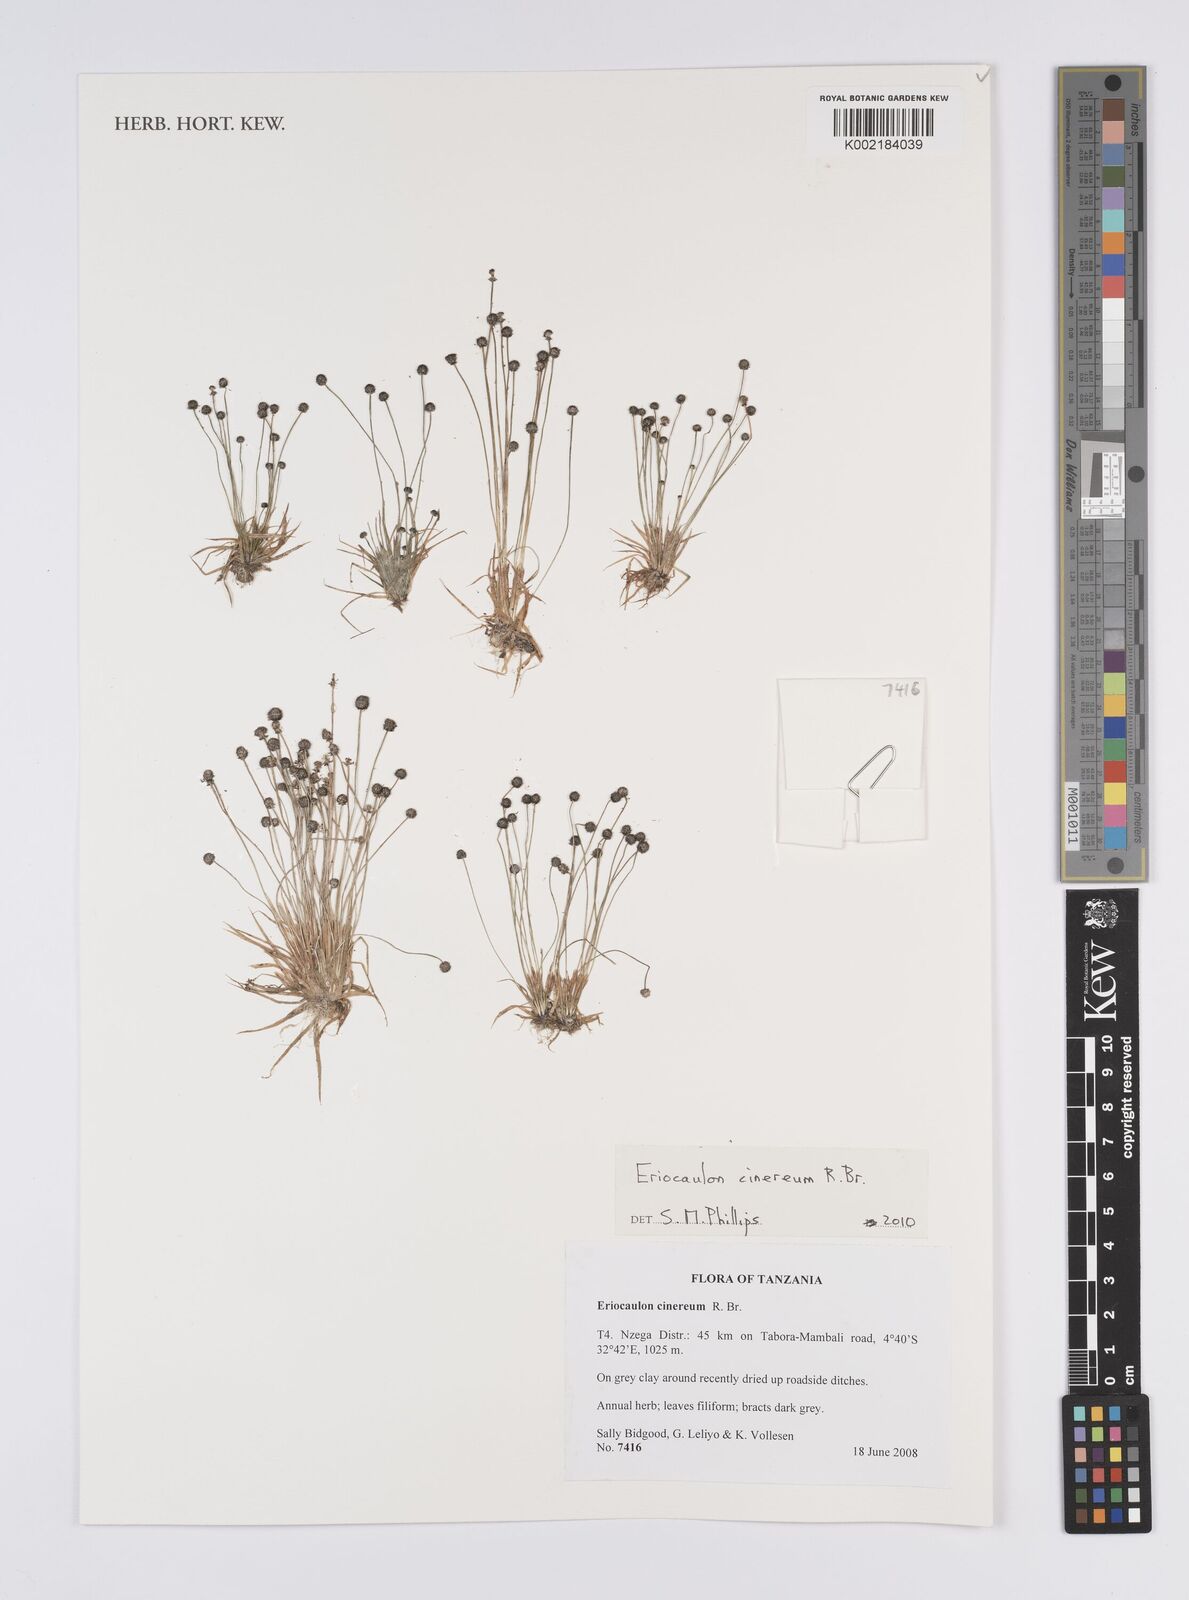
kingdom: Plantae
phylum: Tracheophyta
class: Liliopsida
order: Poales
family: Eriocaulaceae
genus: Eriocaulon
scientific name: Eriocaulon cinereum
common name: Ashy pipewort
